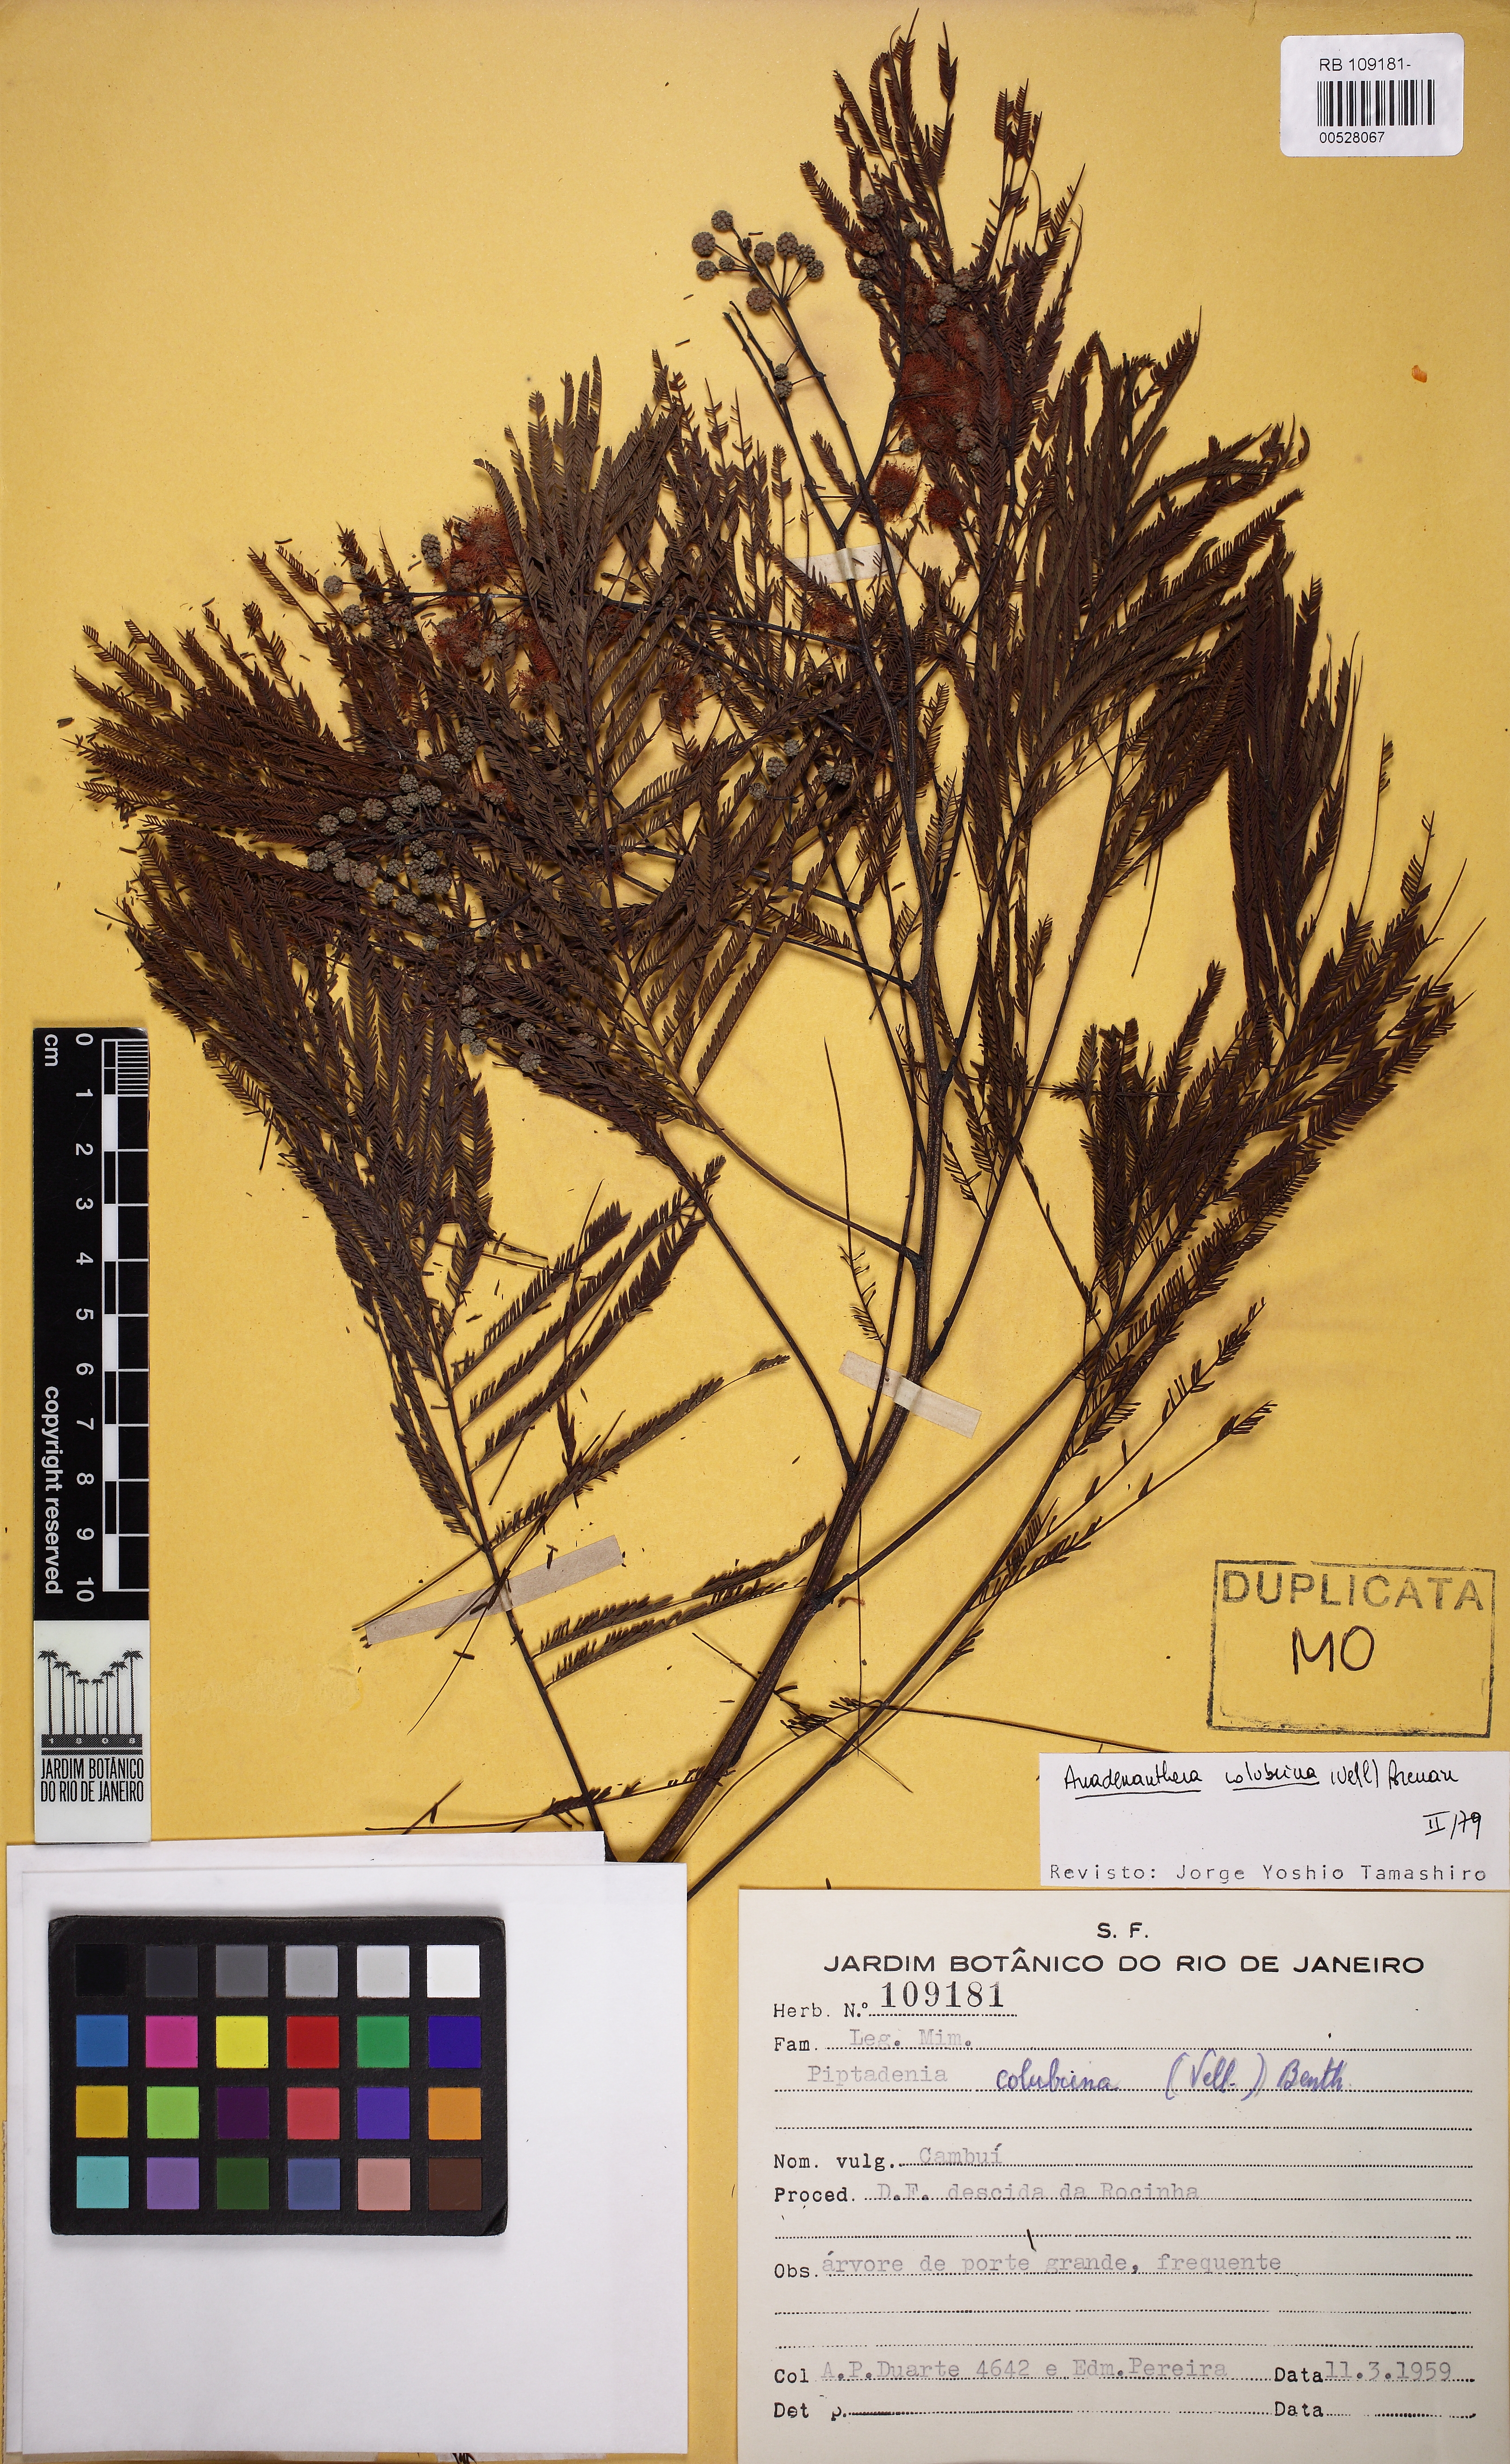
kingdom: Plantae
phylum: Tracheophyta
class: Magnoliopsida
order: Fabales
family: Fabaceae
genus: Anadenanthera
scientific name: Anadenanthera colubrina
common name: Curupay
